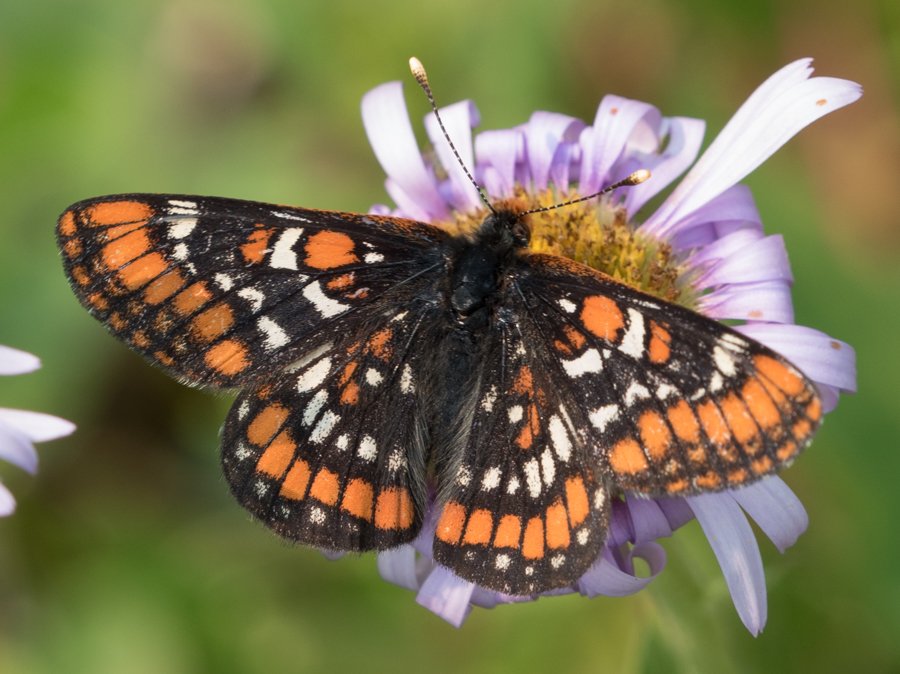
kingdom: Animalia
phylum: Arthropoda
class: Insecta
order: Lepidoptera
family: Nymphalidae
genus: Hypodryas
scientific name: Hypodryas gillettii
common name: Gillette's Checkerspot
